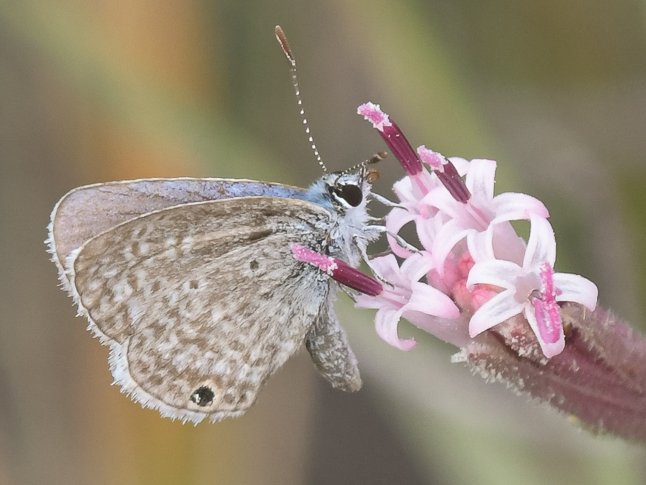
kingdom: Animalia
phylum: Arthropoda
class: Insecta
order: Lepidoptera
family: Lycaenidae
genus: Hemiargus
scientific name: Hemiargus ceraunus
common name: Ceraunus Blue
